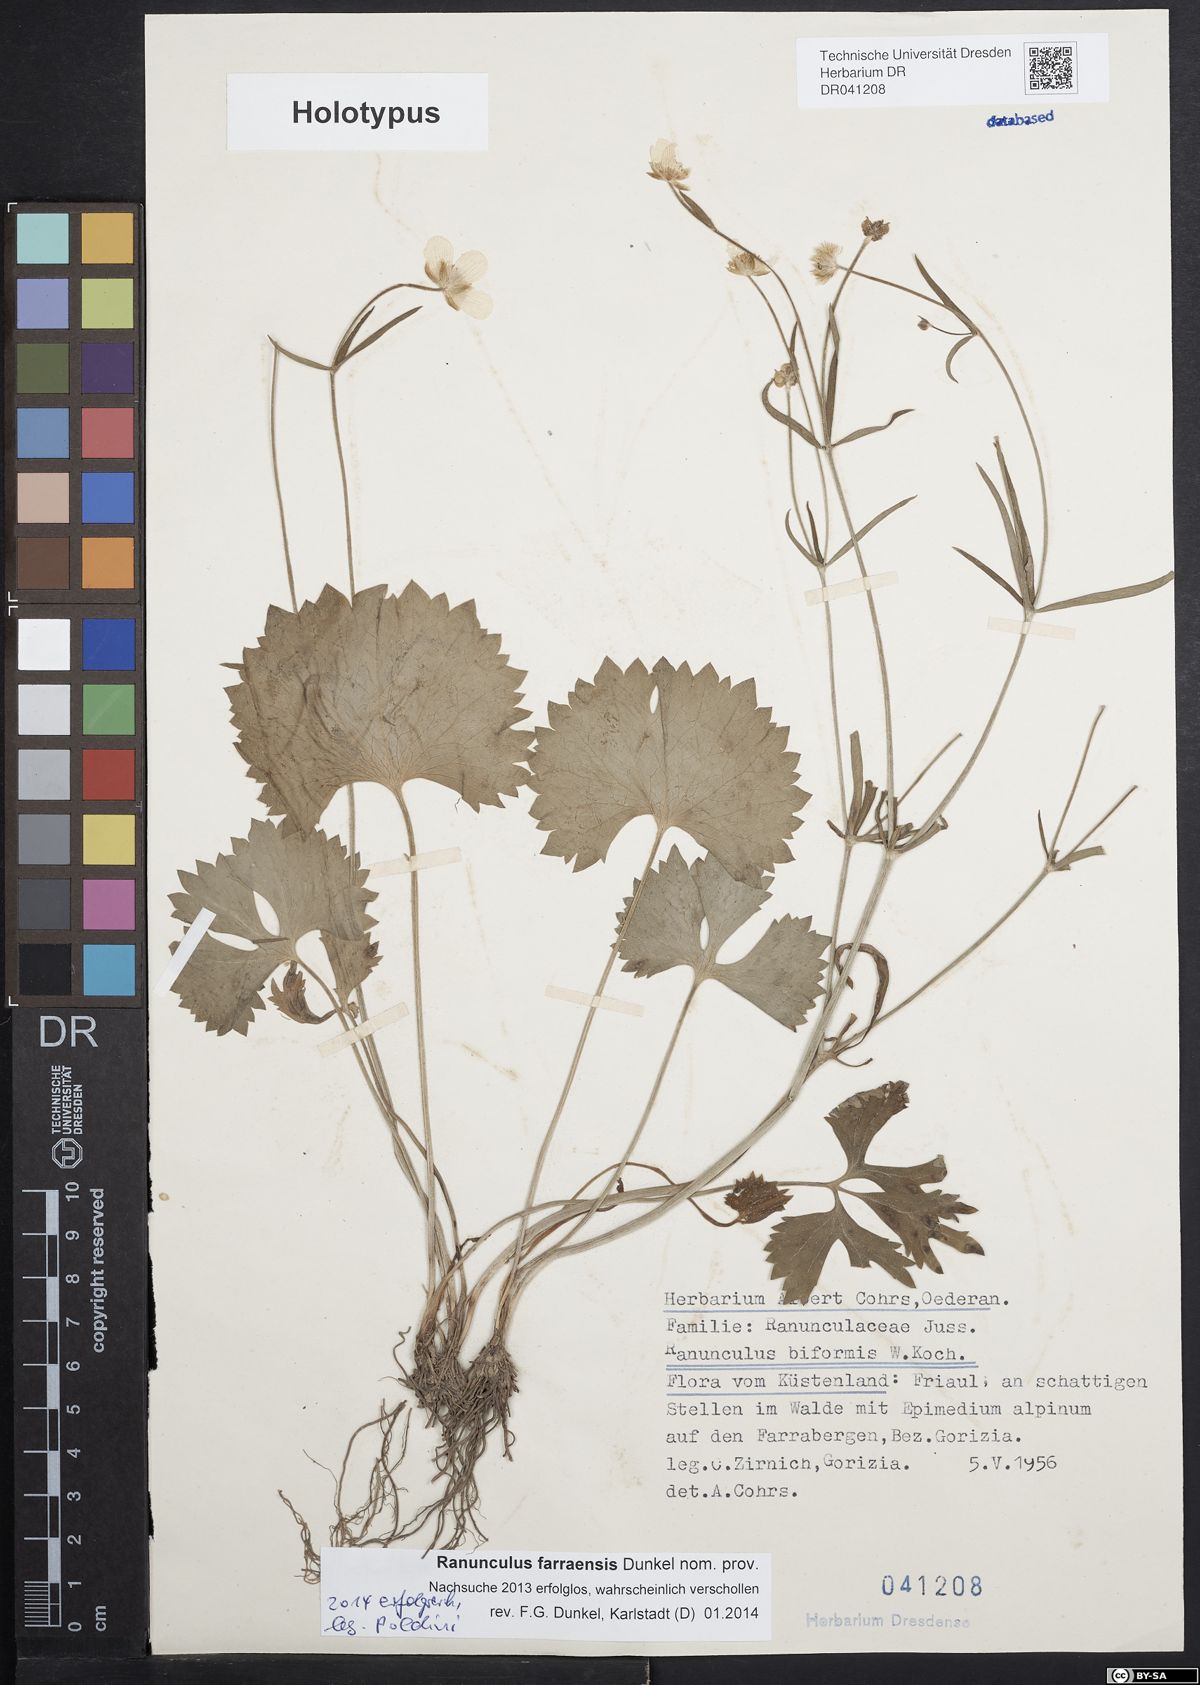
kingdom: Plantae
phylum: Tracheophyta
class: Magnoliopsida
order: Ranunculales
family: Ranunculaceae
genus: Ranunculus
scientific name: Ranunculus farraensis
